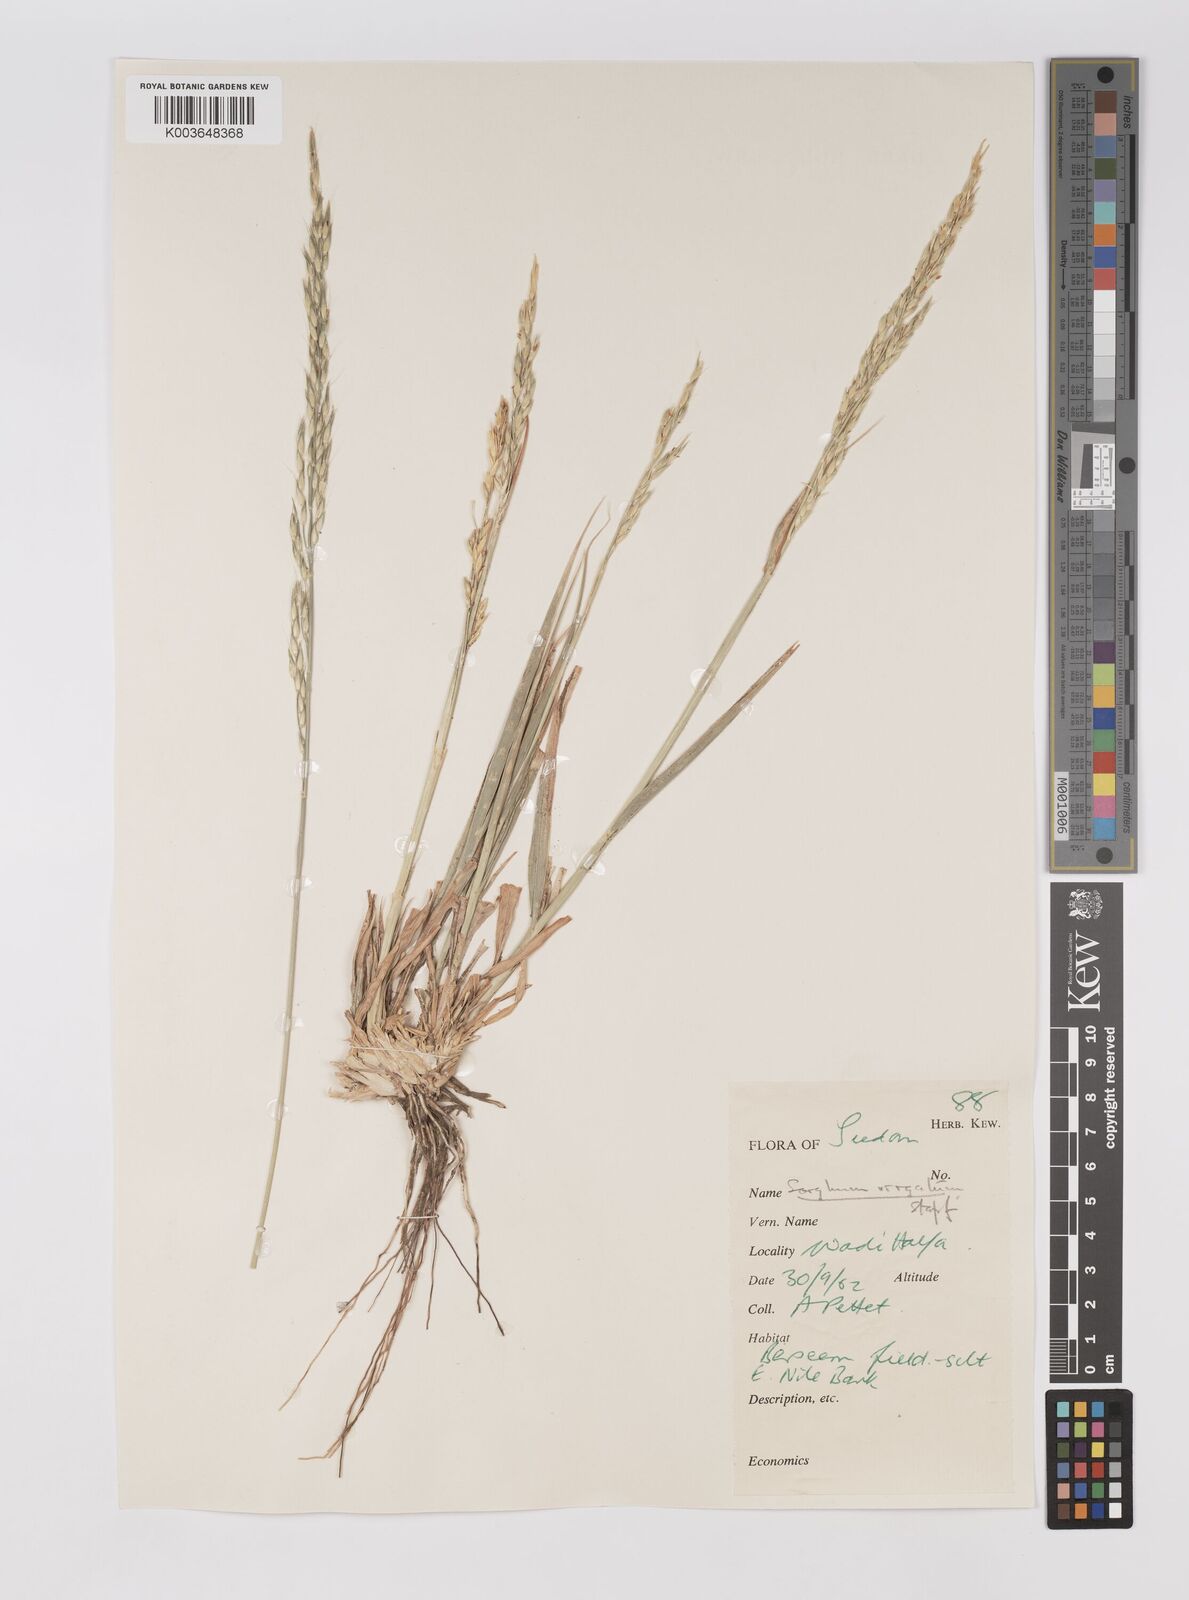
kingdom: Plantae
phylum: Tracheophyta
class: Liliopsida
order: Poales
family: Poaceae
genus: Sorghum
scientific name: Sorghum virgatum
